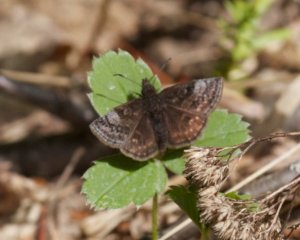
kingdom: Animalia
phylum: Arthropoda
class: Insecta
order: Lepidoptera
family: Hesperiidae
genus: Erynnis
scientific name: Erynnis icelus
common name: Dreamy Duskywing
